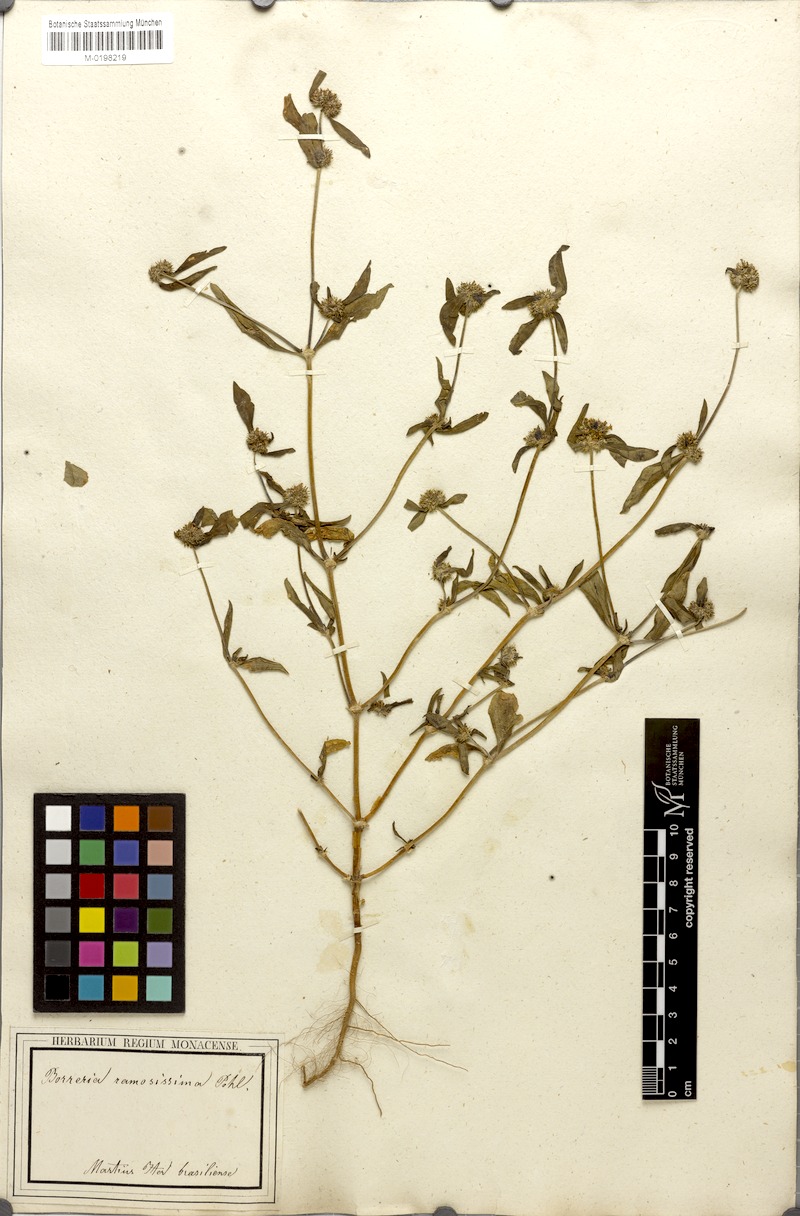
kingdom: Plantae
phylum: Tracheophyta
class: Magnoliopsida
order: Gentianales
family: Rubiaceae
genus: Mitracarpus
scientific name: Mitracarpus hirtus
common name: Tropical girdlepod
